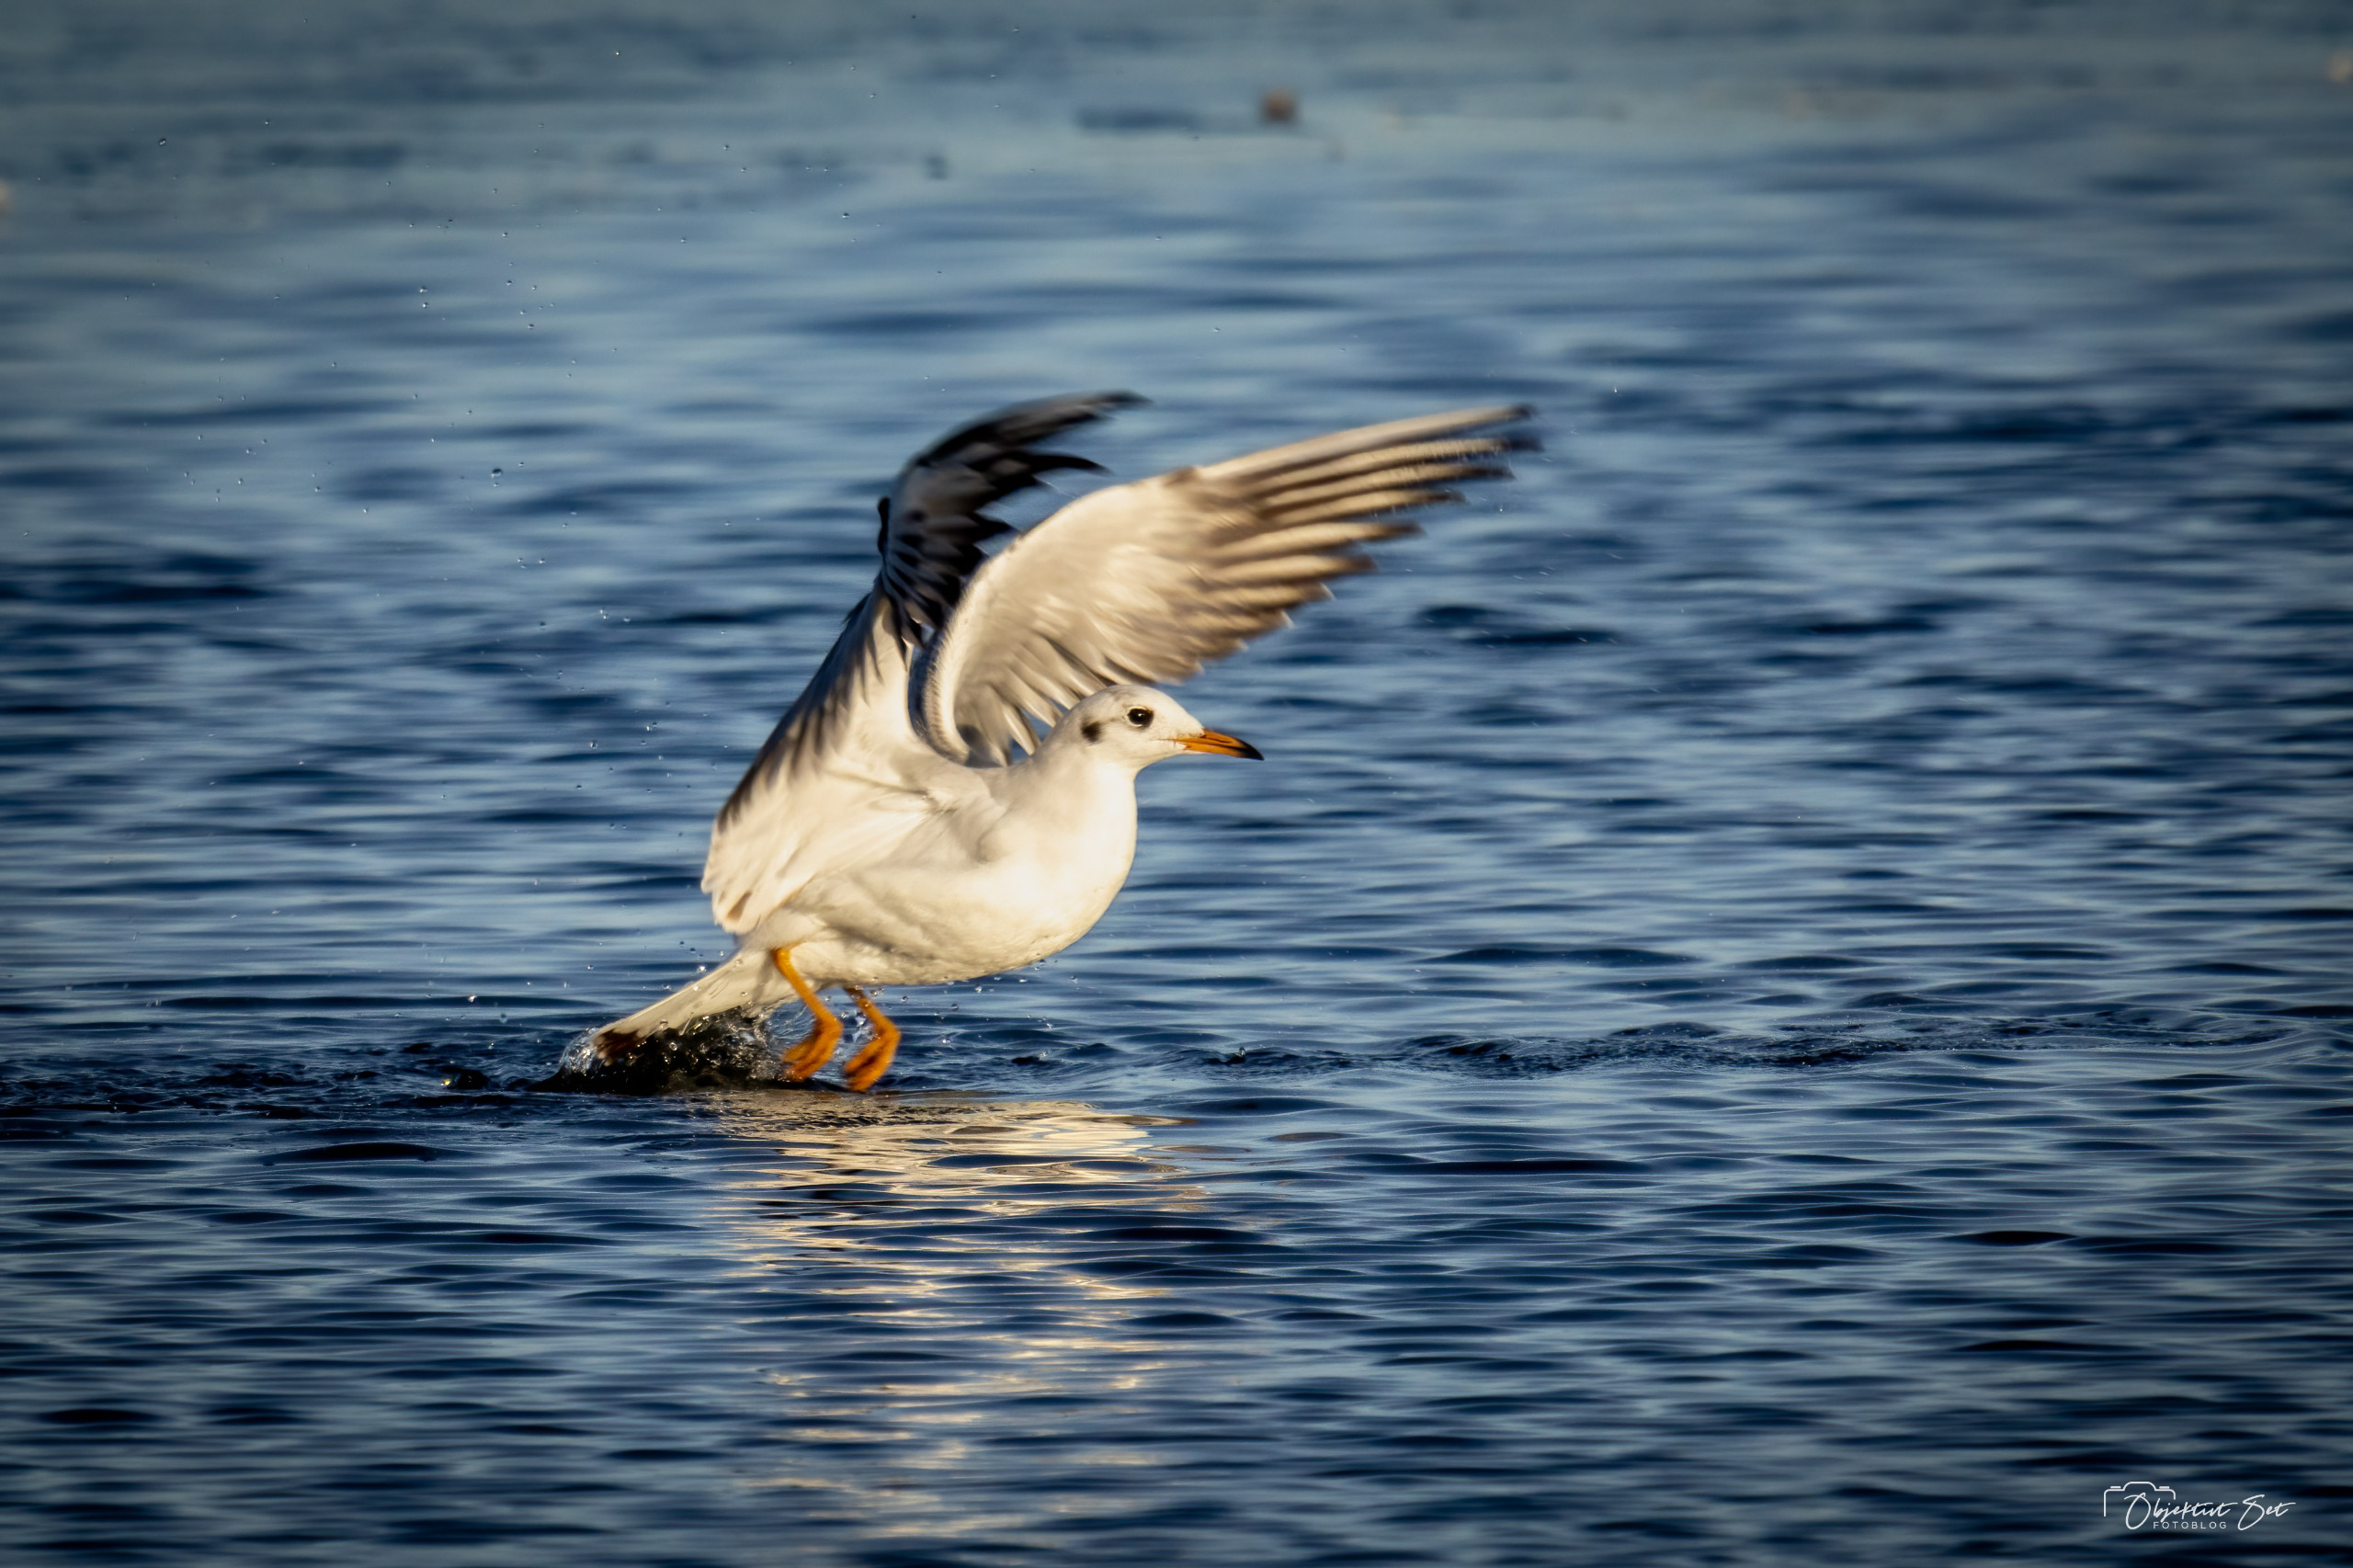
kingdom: Animalia
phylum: Chordata
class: Aves
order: Charadriiformes
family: Laridae
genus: Chroicocephalus
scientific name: Chroicocephalus ridibundus
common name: Hættemåge
